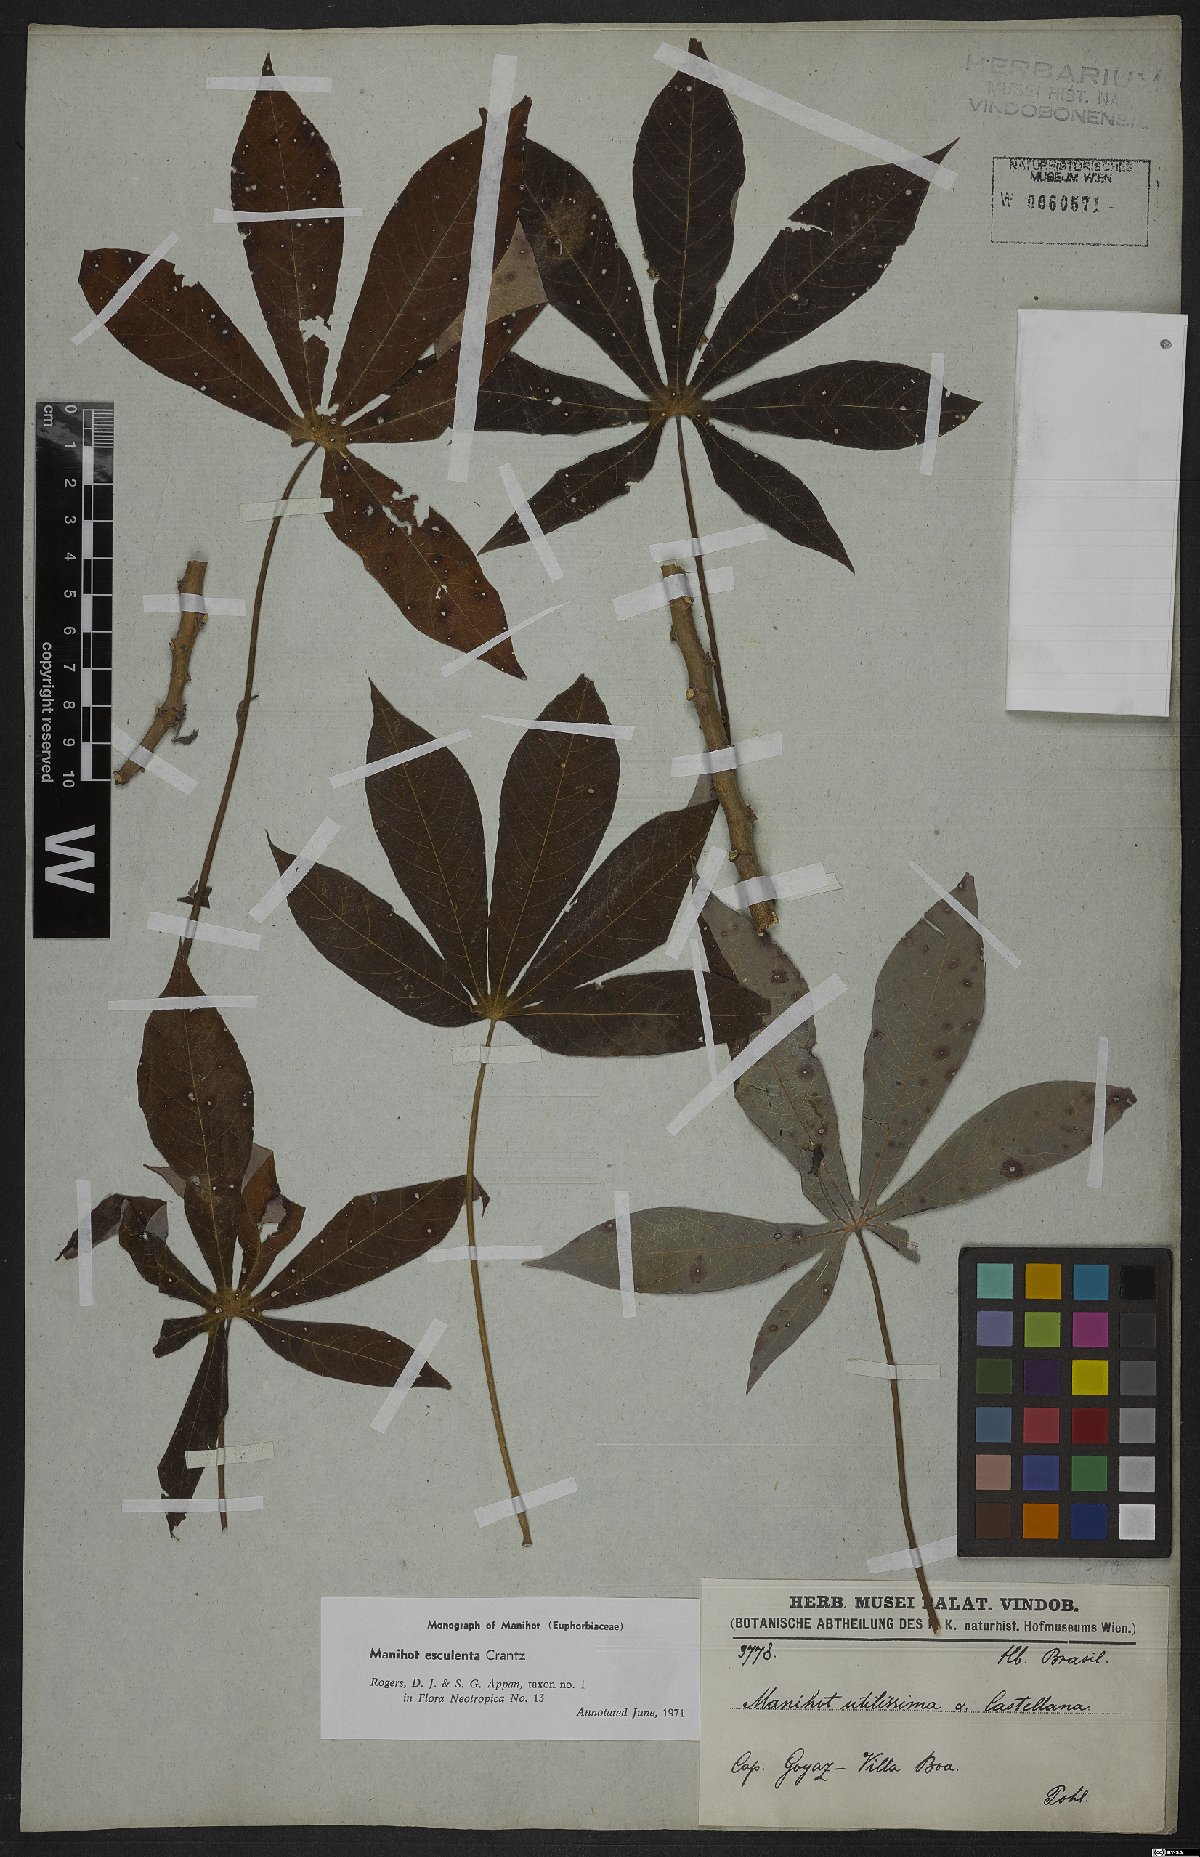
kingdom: Plantae
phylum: Tracheophyta
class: Magnoliopsida
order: Malpighiales
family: Euphorbiaceae
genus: Manihot
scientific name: Manihot esculenta
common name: Cassava
